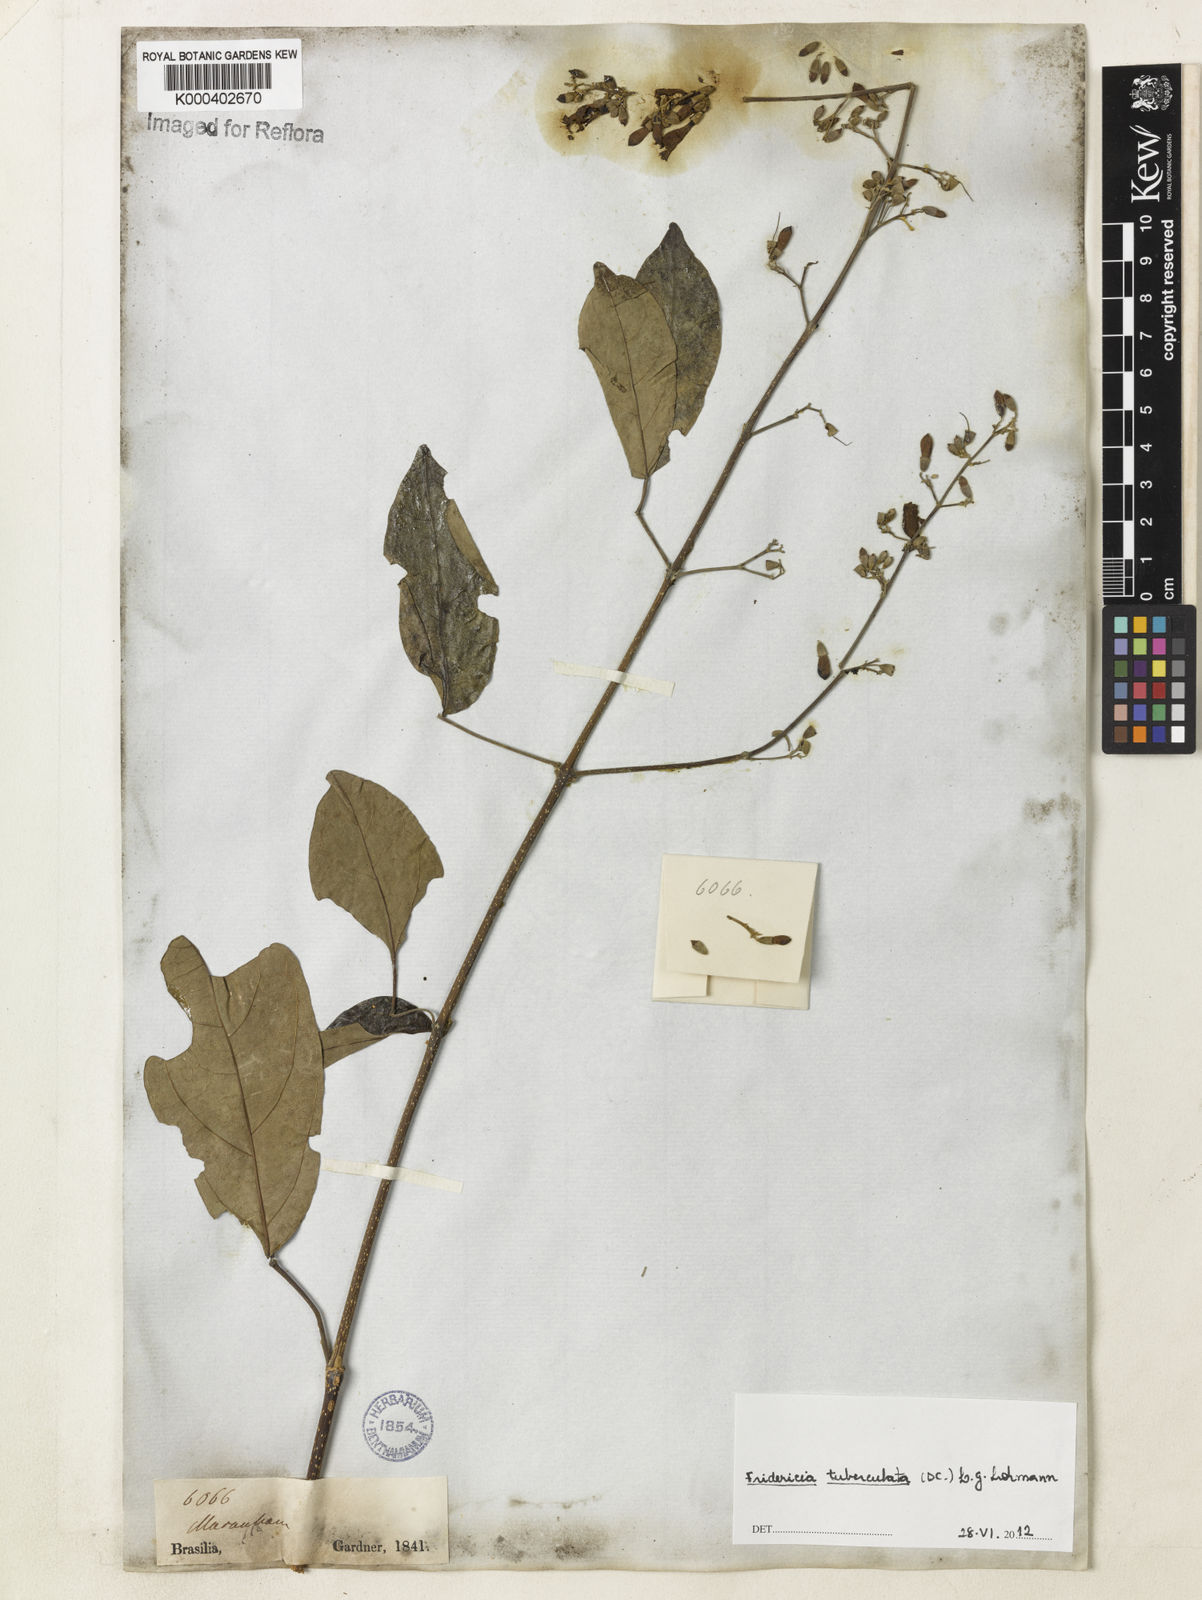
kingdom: Plantae
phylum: Tracheophyta
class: Magnoliopsida
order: Lamiales
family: Bignoniaceae
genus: Fridericia
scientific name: Fridericia tuberculata
